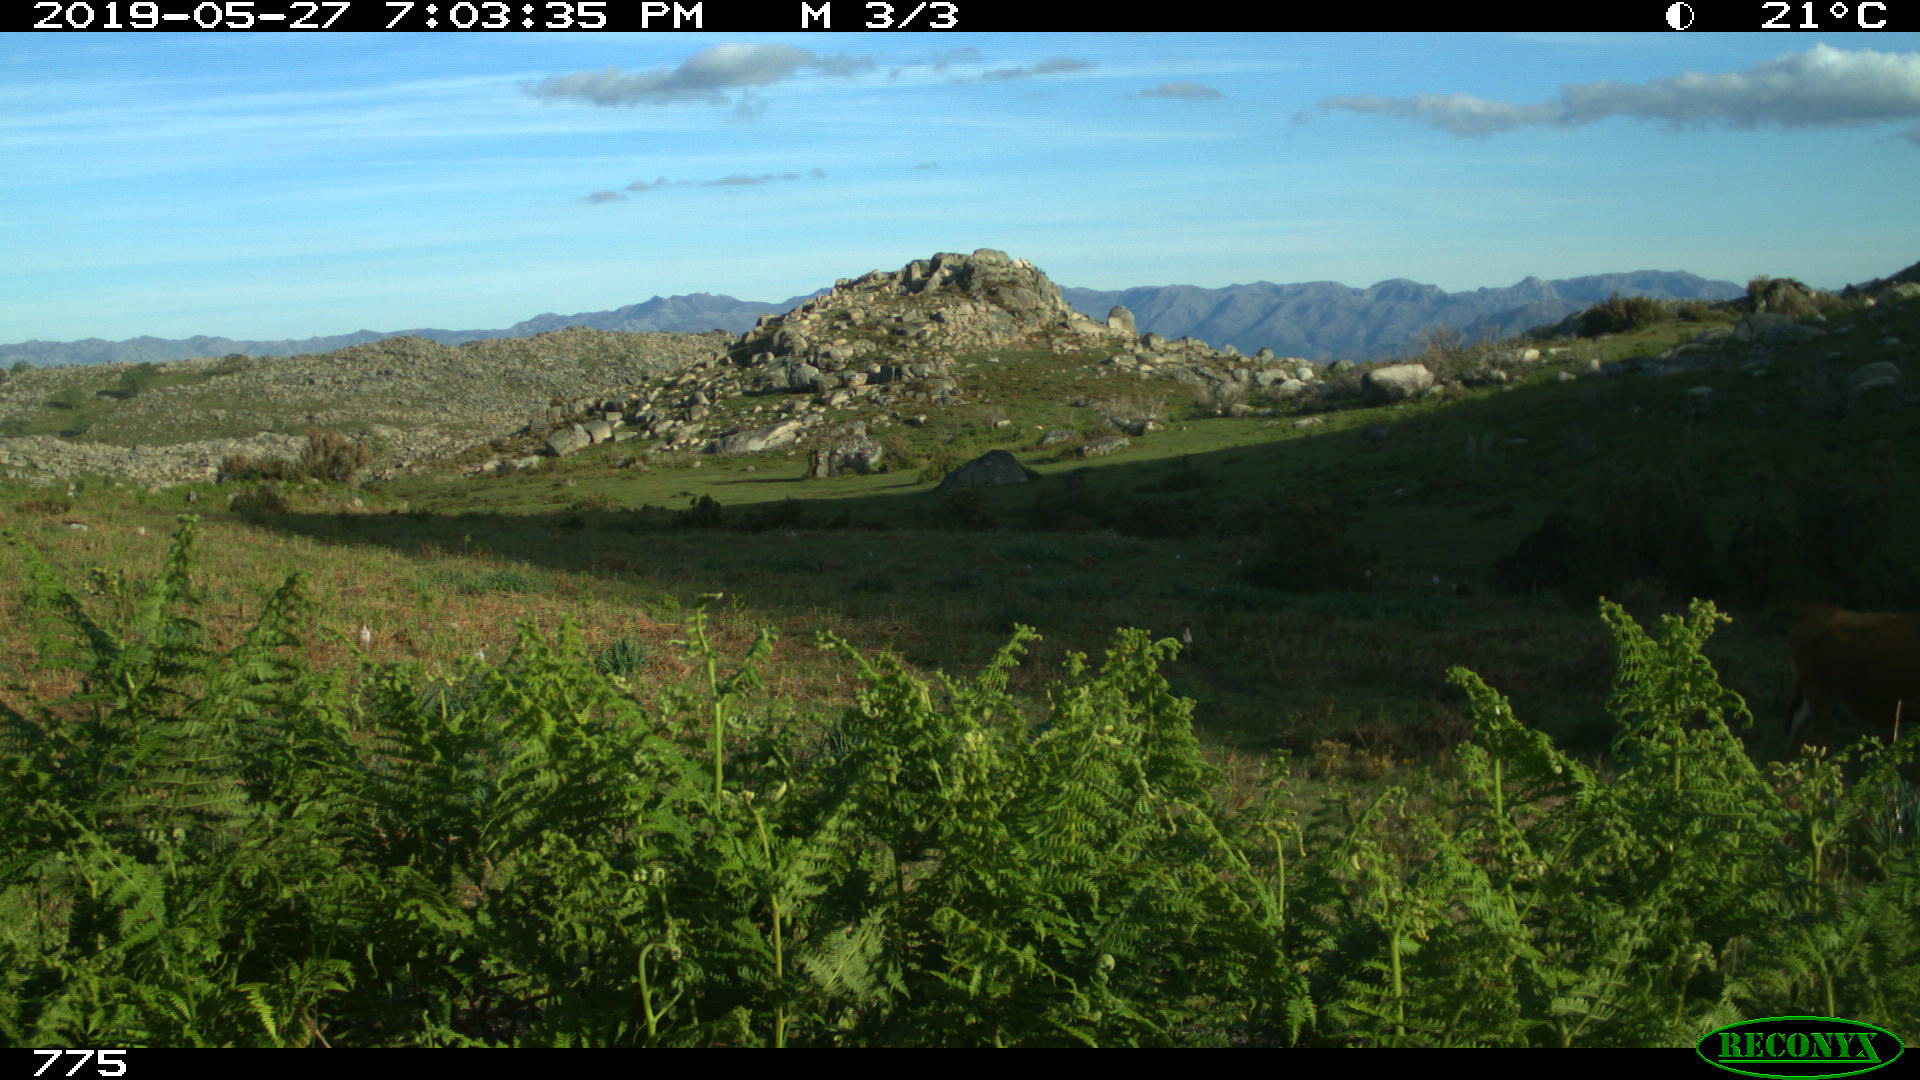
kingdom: Animalia
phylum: Chordata
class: Mammalia
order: Artiodactyla
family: Bovidae
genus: Bos
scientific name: Bos taurus
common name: Domesticated cattle
